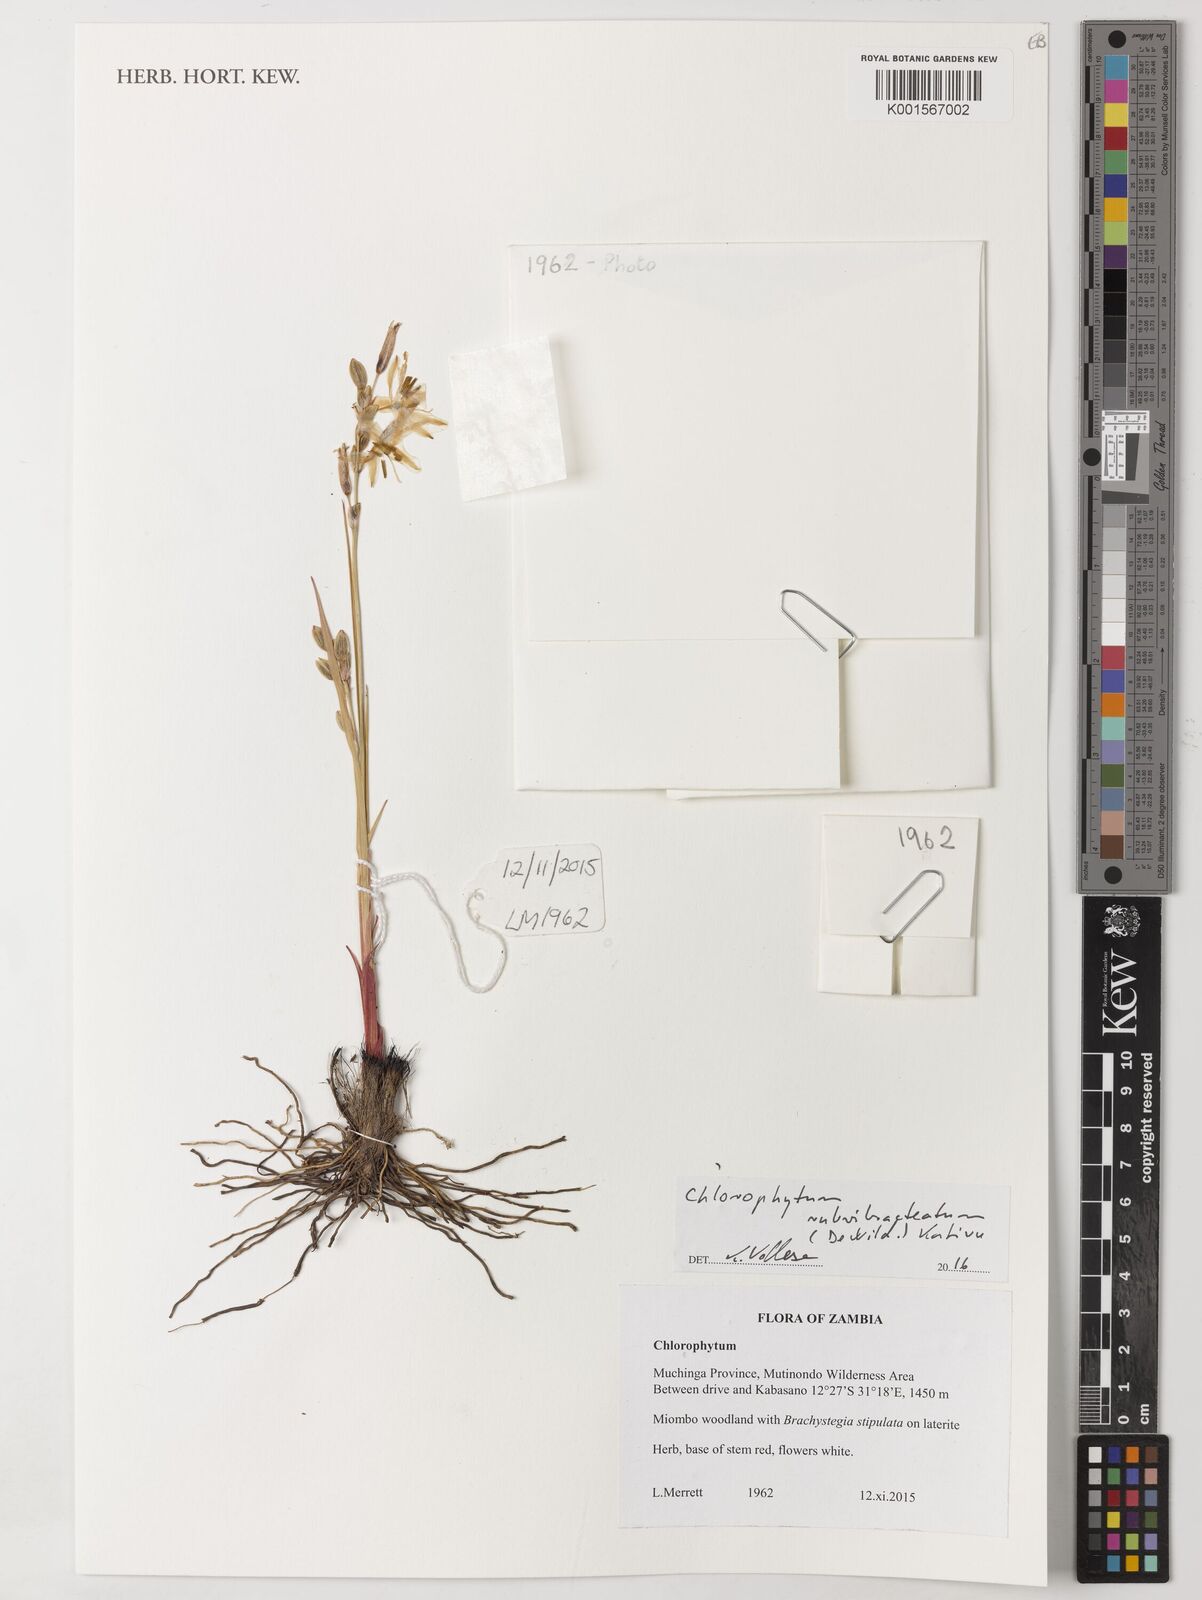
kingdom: Plantae
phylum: Tracheophyta
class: Liliopsida
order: Asparagales
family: Asparagaceae
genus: Chlorophytum
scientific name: Chlorophytum rubribracteatum
